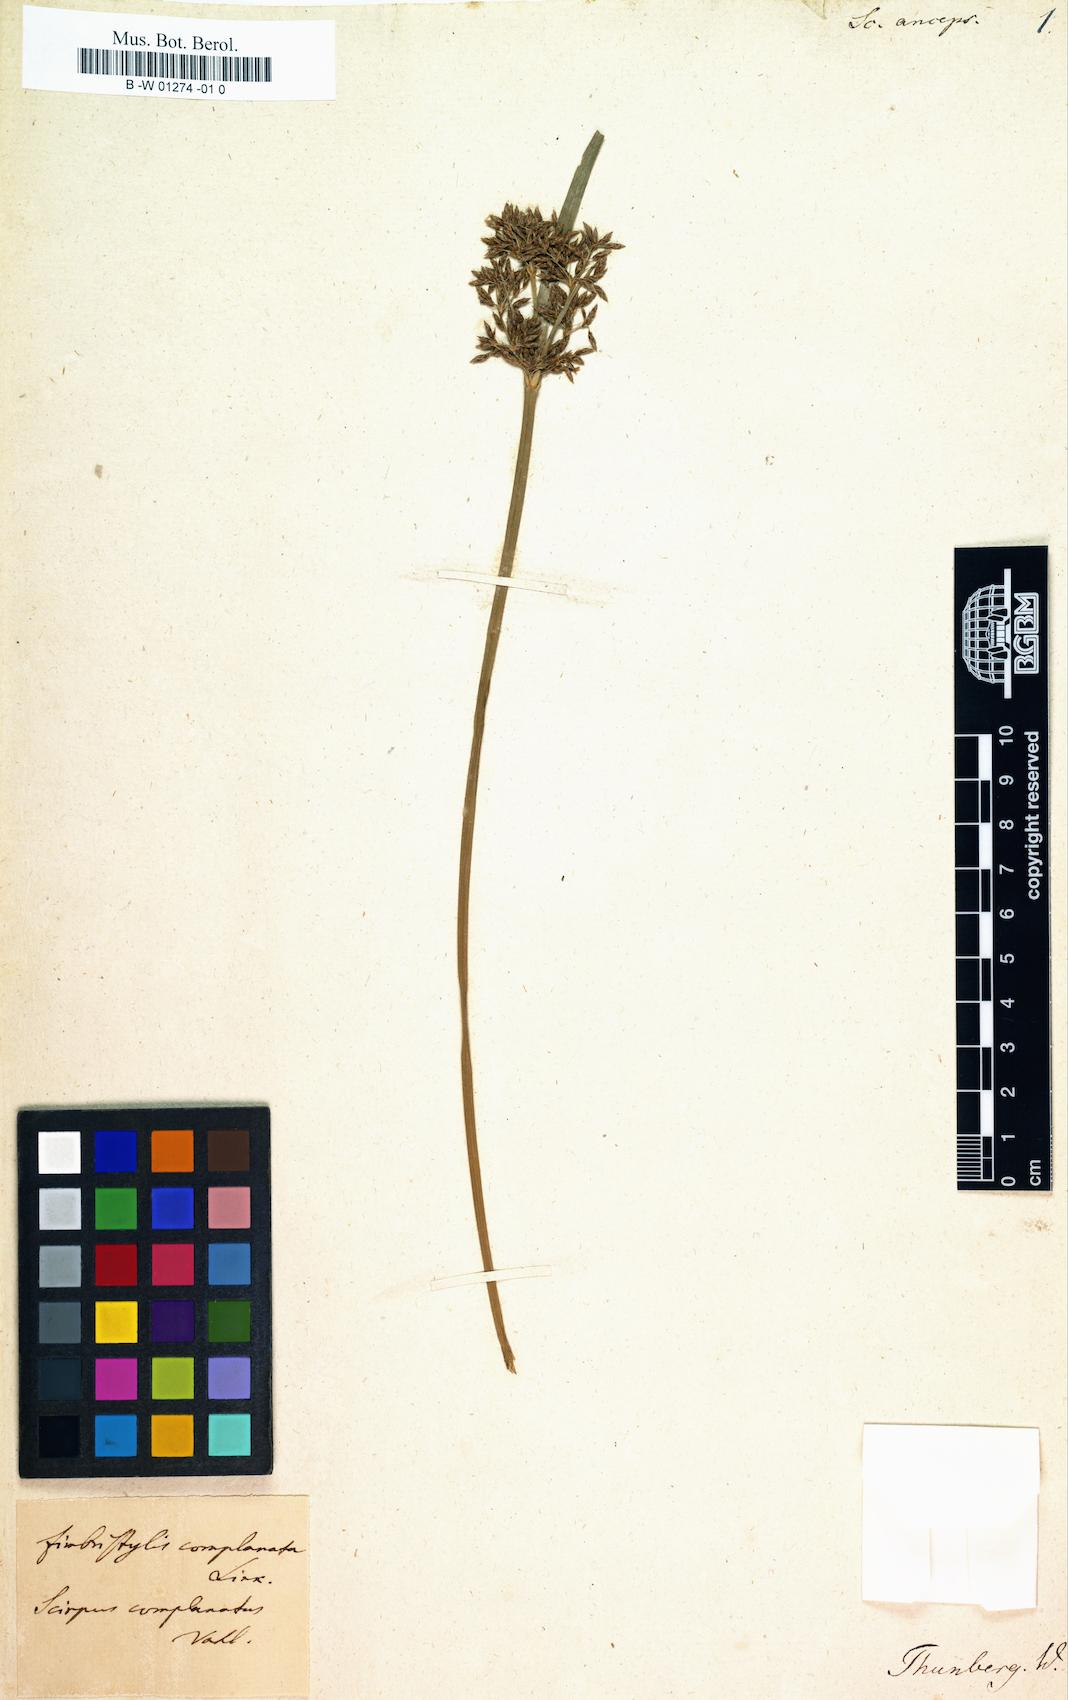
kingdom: Plantae
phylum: Tracheophyta
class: Liliopsida
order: Poales
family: Cyperaceae
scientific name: Cyperaceae
